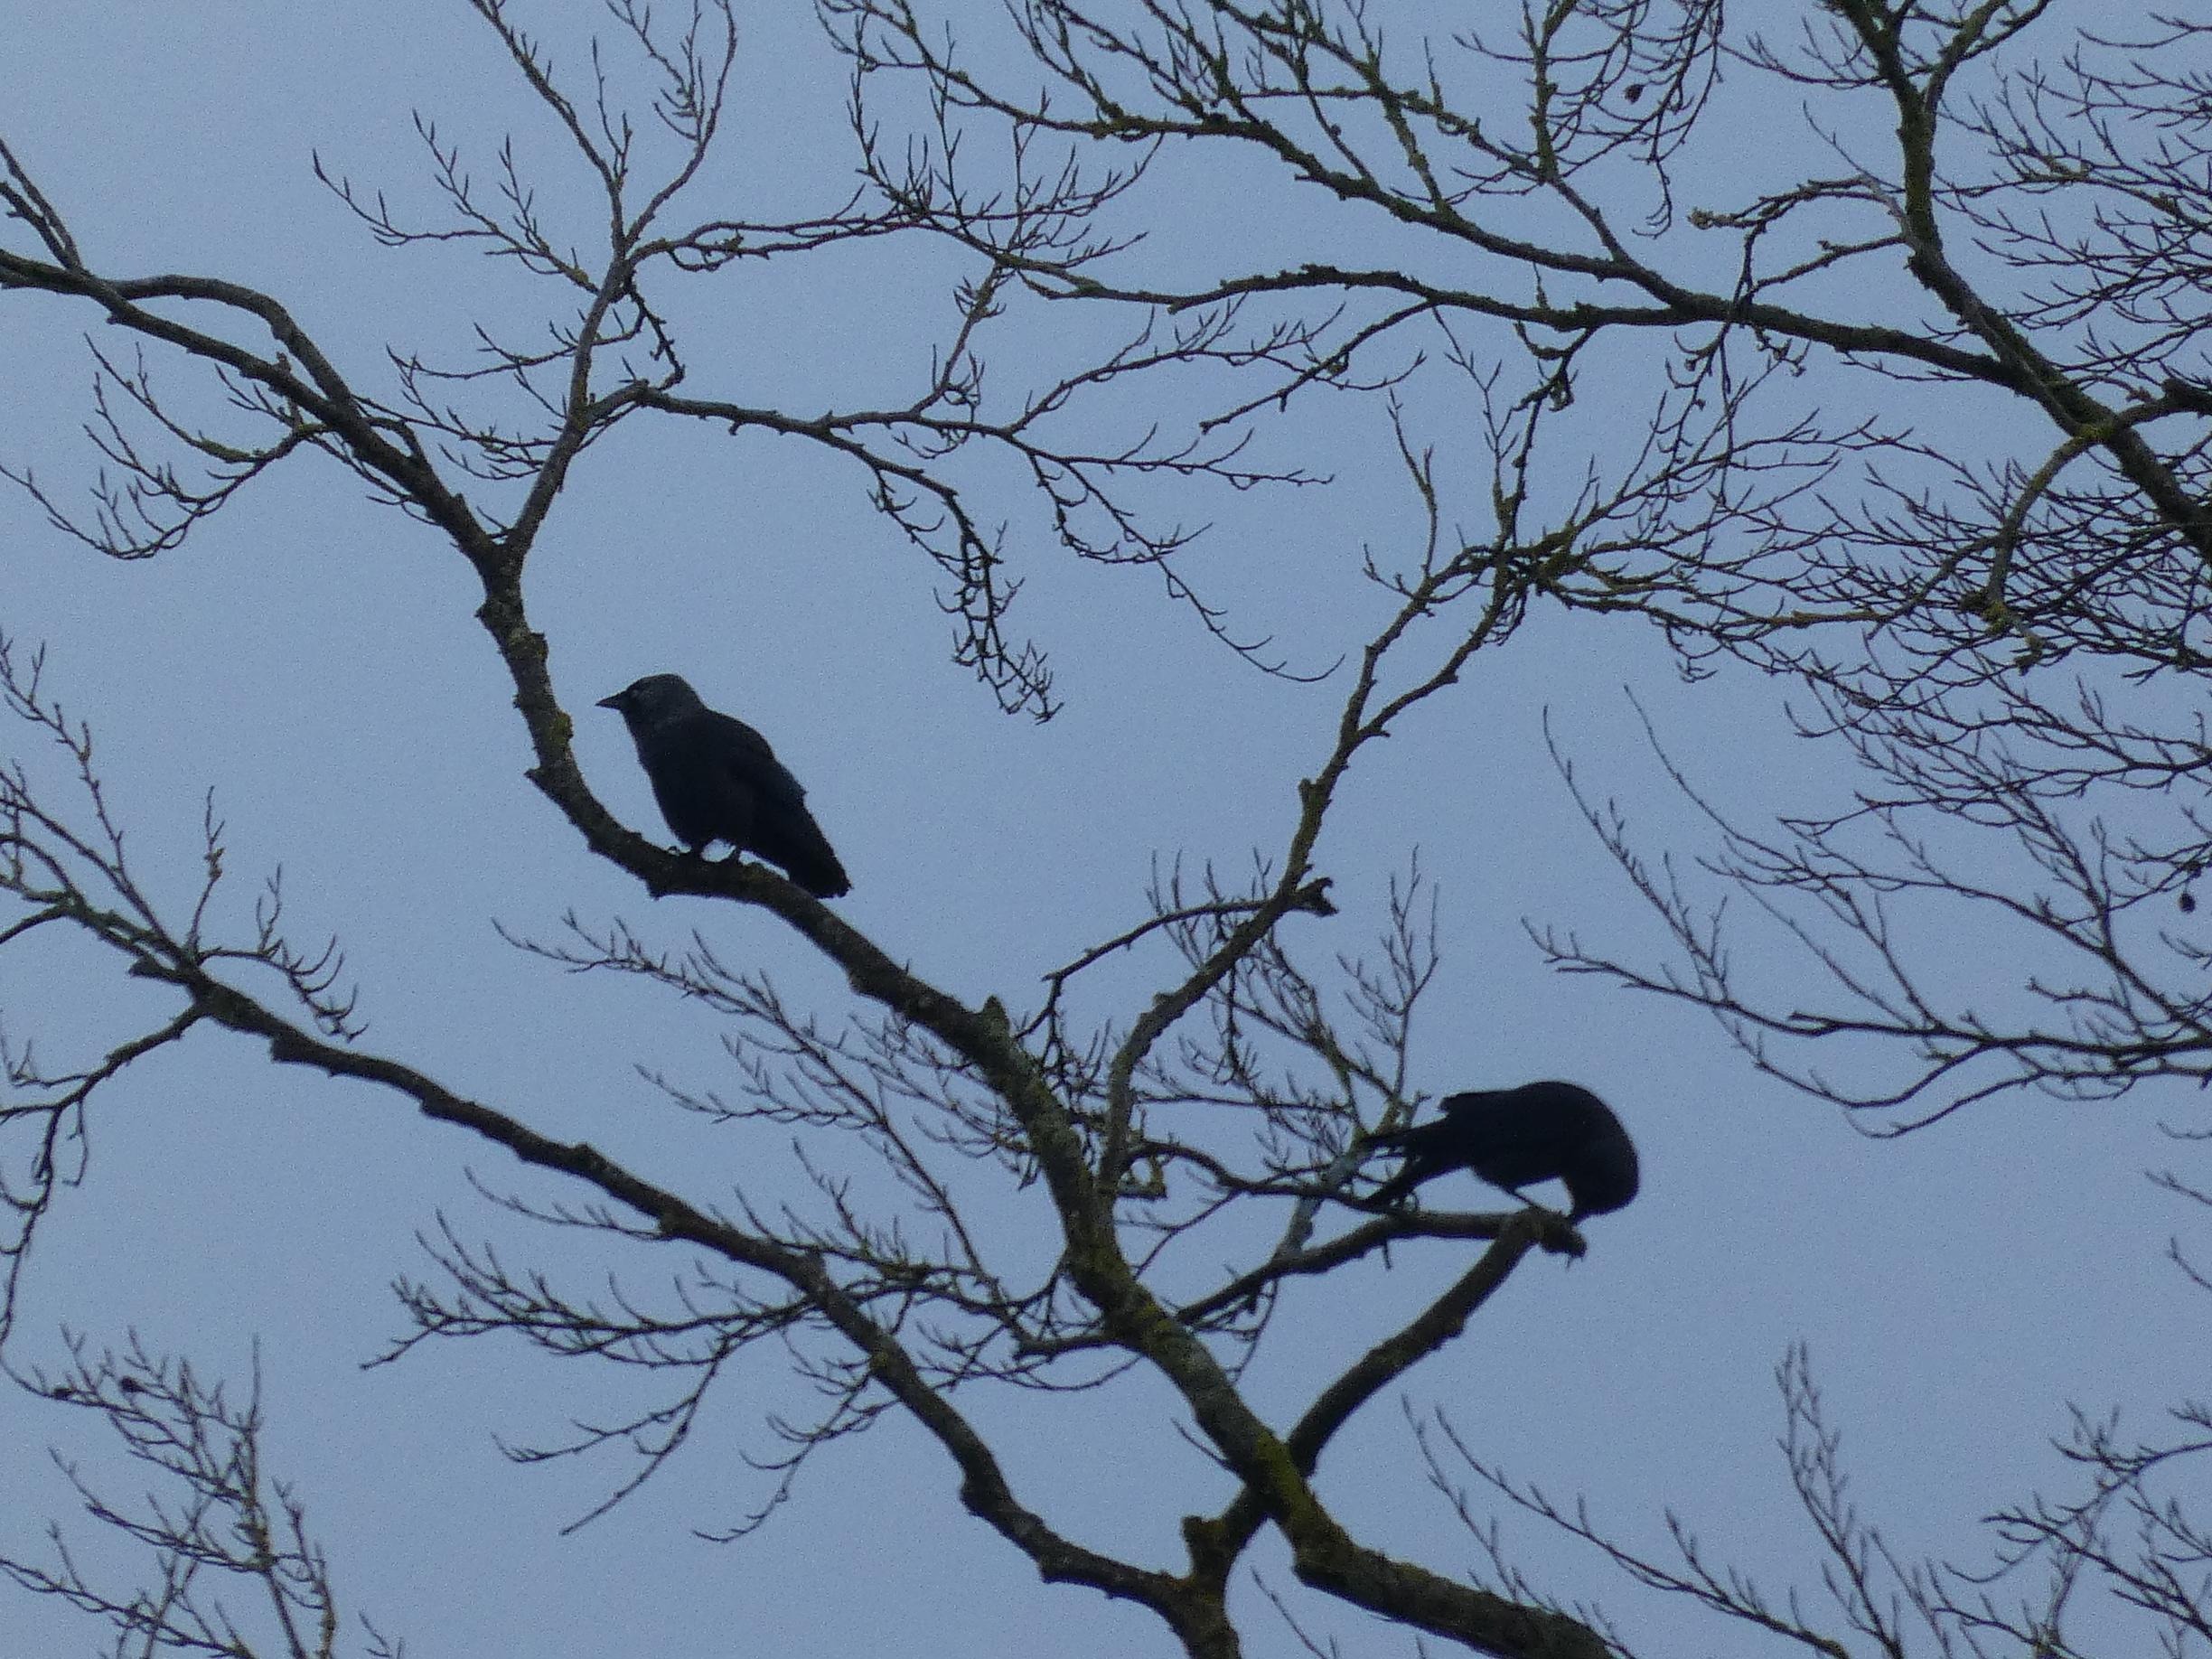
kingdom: Animalia
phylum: Chordata
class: Aves
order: Passeriformes
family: Corvidae
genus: Coloeus
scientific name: Coloeus monedula
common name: Allike
